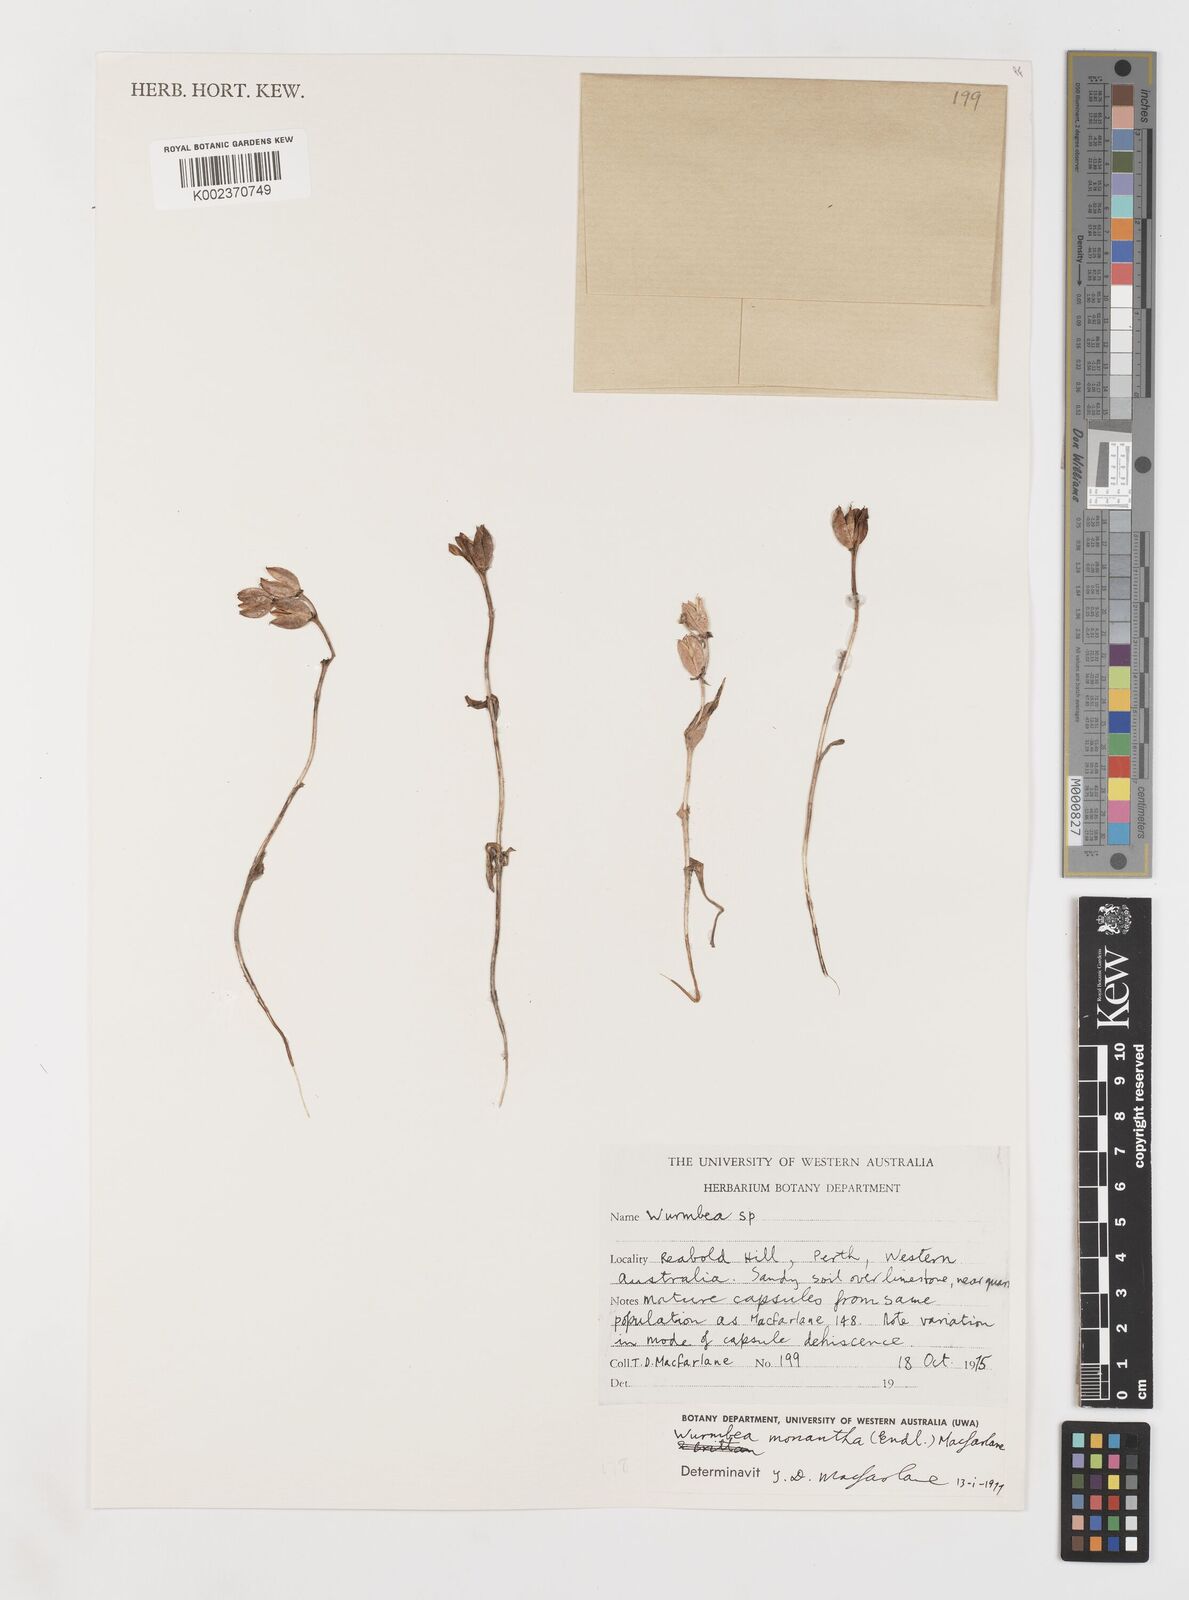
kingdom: Plantae
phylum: Tracheophyta
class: Liliopsida
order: Liliales
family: Colchicaceae
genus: Wurmbea
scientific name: Wurmbea monantha
